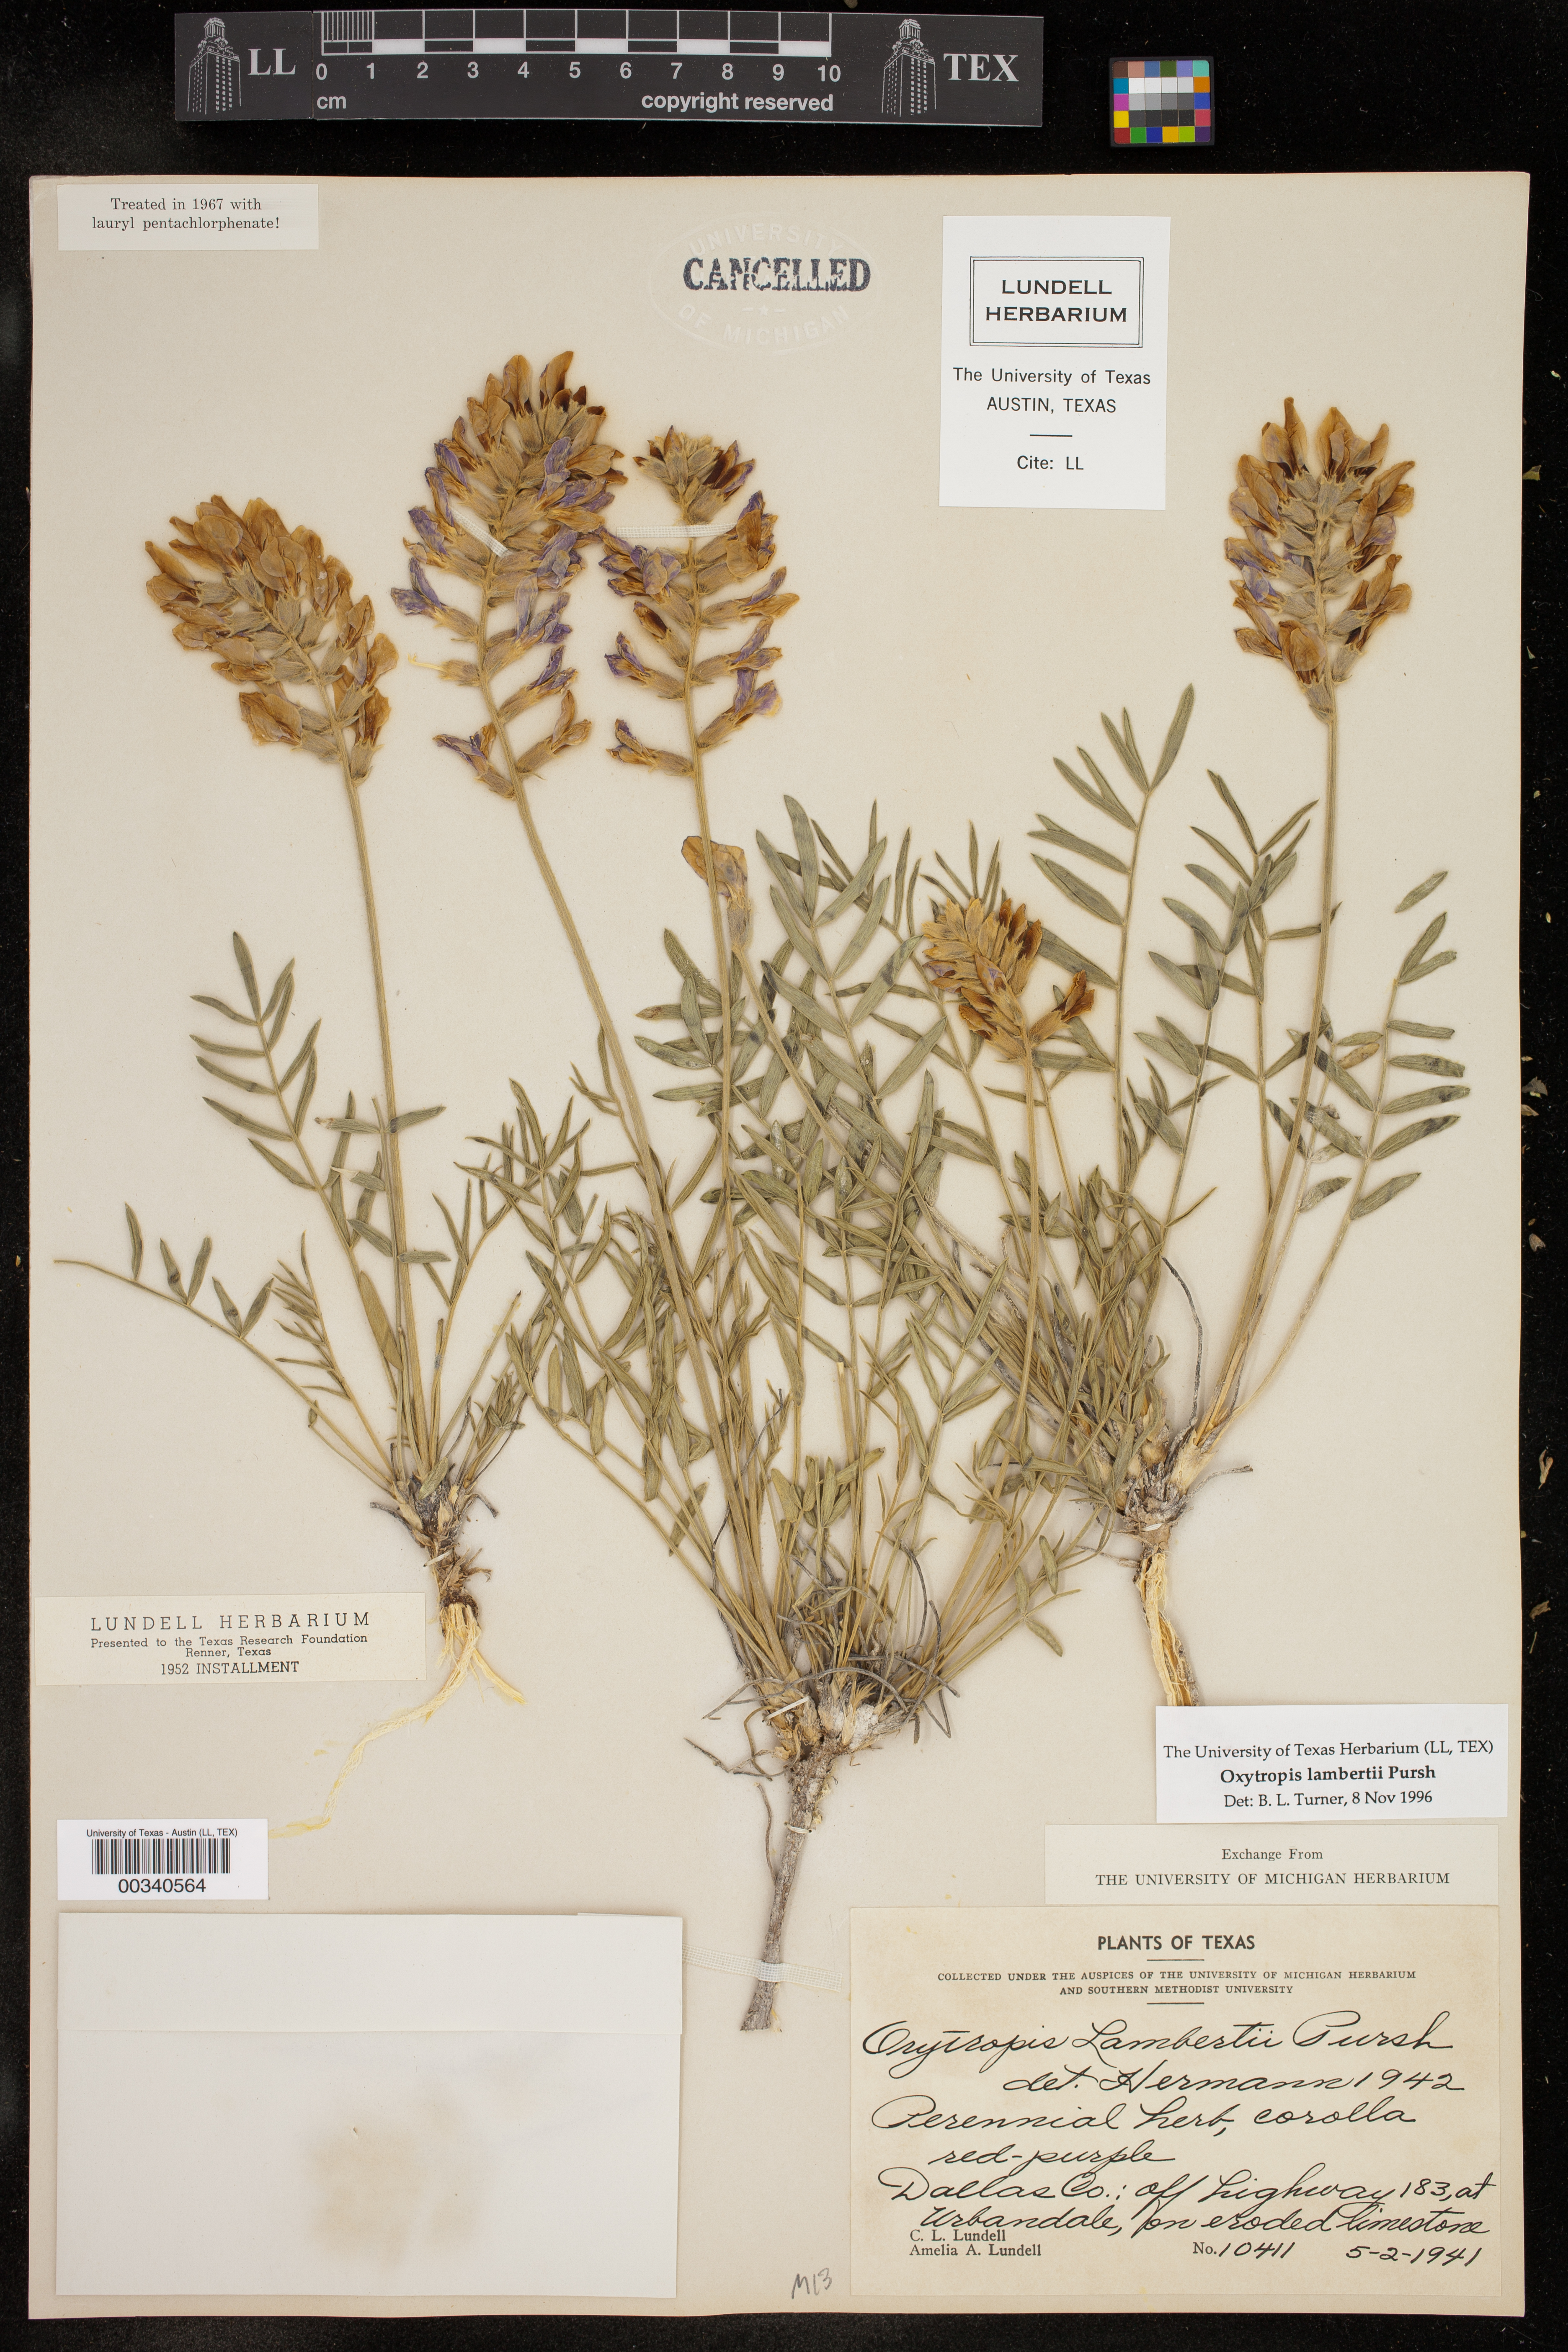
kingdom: Plantae
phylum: Tracheophyta
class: Magnoliopsida
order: Fabales
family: Fabaceae
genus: Oxytropis
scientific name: Oxytropis lambertii
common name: Purple locoweed
